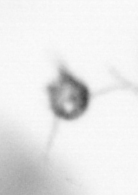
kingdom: Animalia
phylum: Arthropoda
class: Copepoda
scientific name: Copepoda
